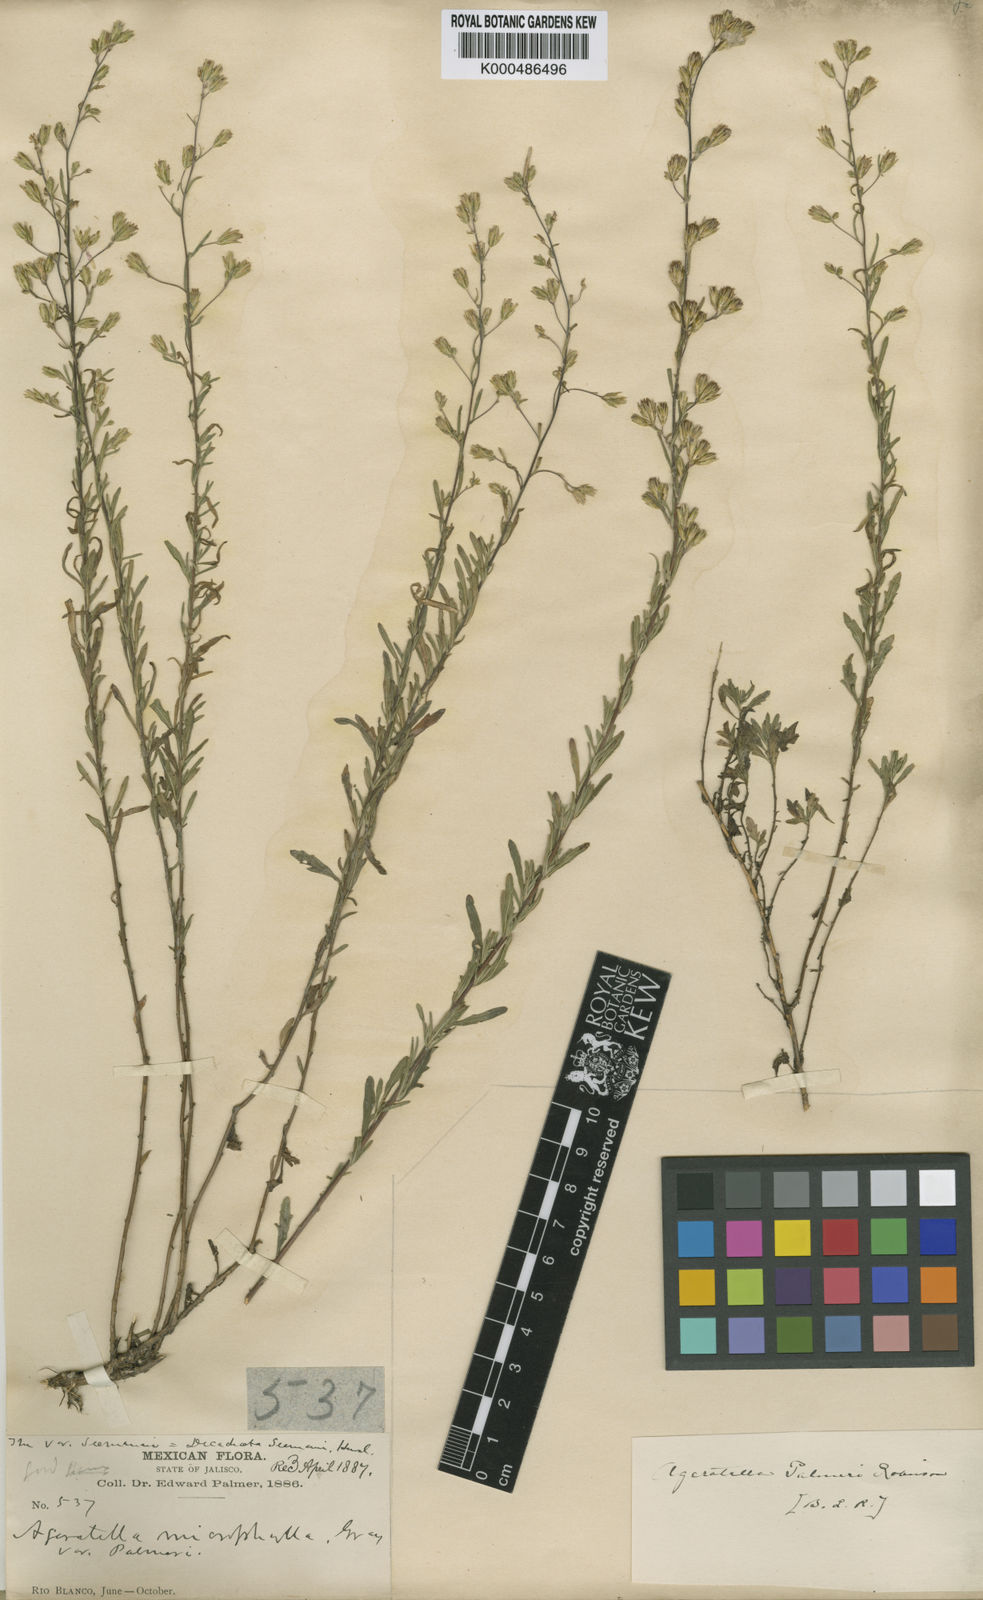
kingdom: Plantae
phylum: Tracheophyta
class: Magnoliopsida
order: Asterales
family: Asteraceae
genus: Ageratella
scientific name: Ageratella microphylla
